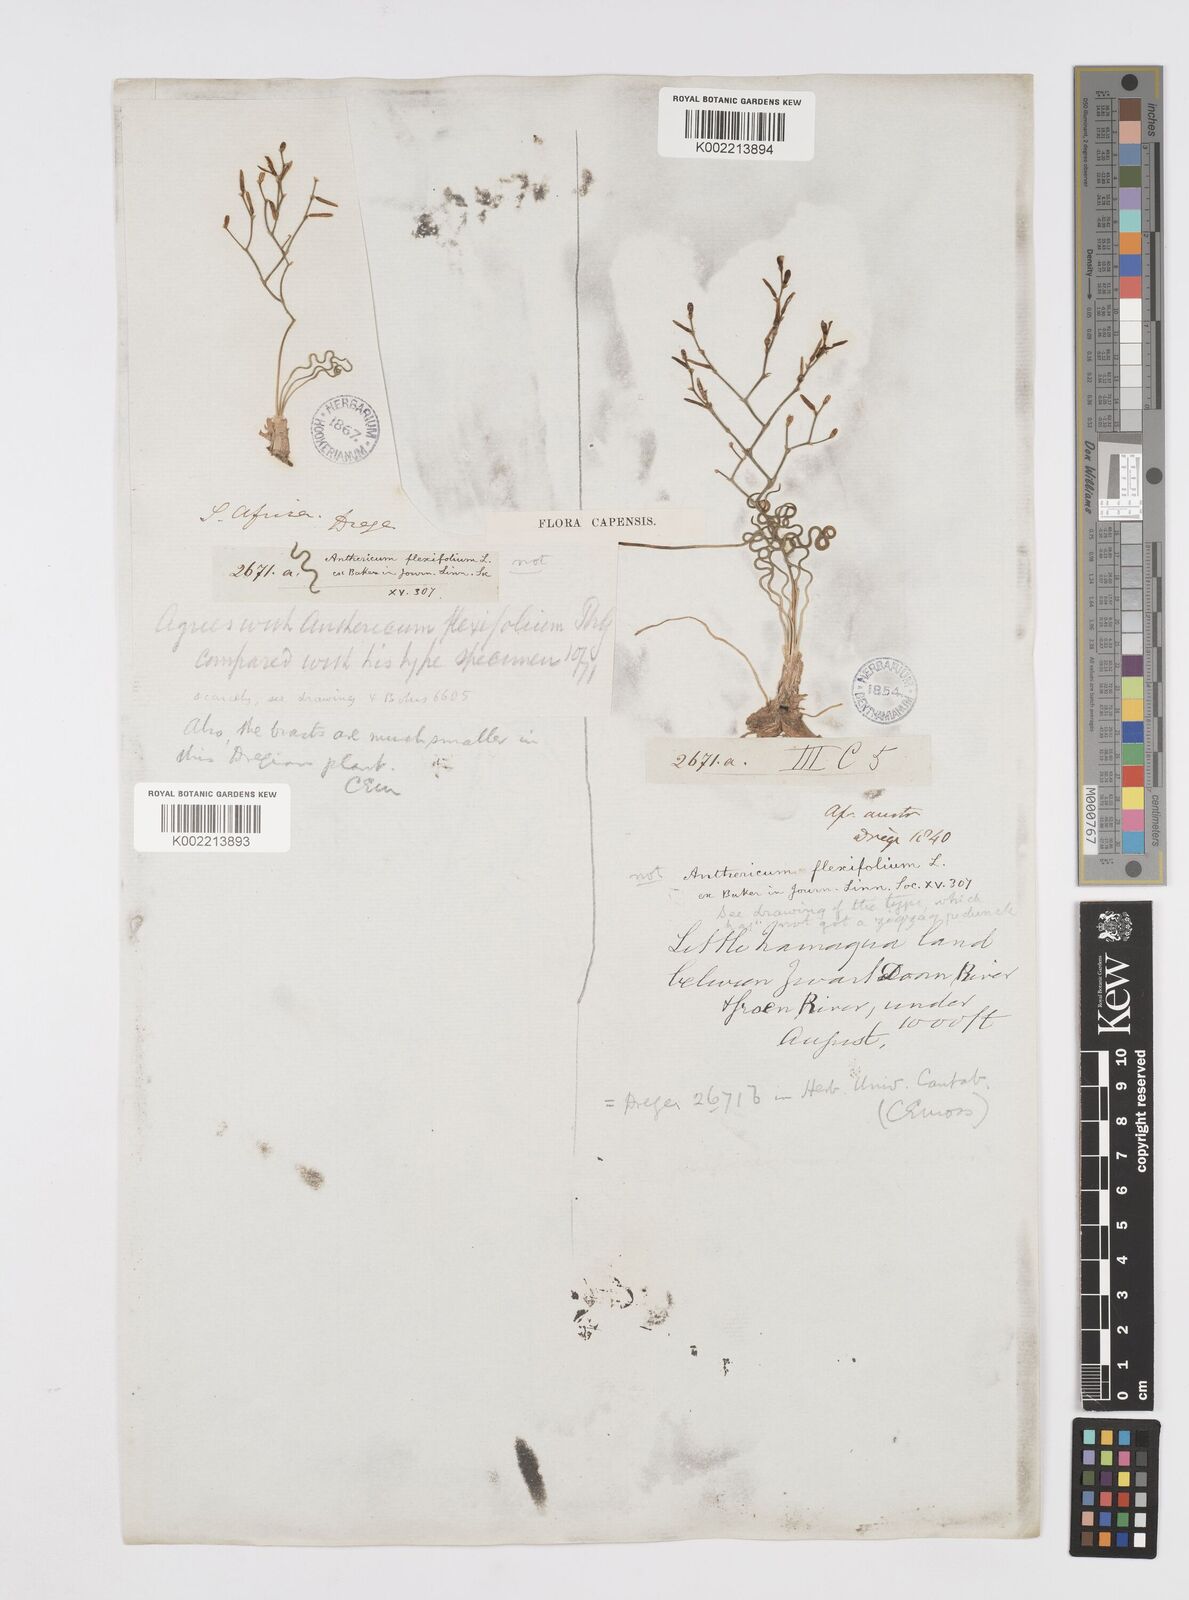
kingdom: Plantae
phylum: Tracheophyta
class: Liliopsida
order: Asparagales
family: Asphodelaceae
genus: Trachyandra
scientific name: Trachyandra flexifolia
